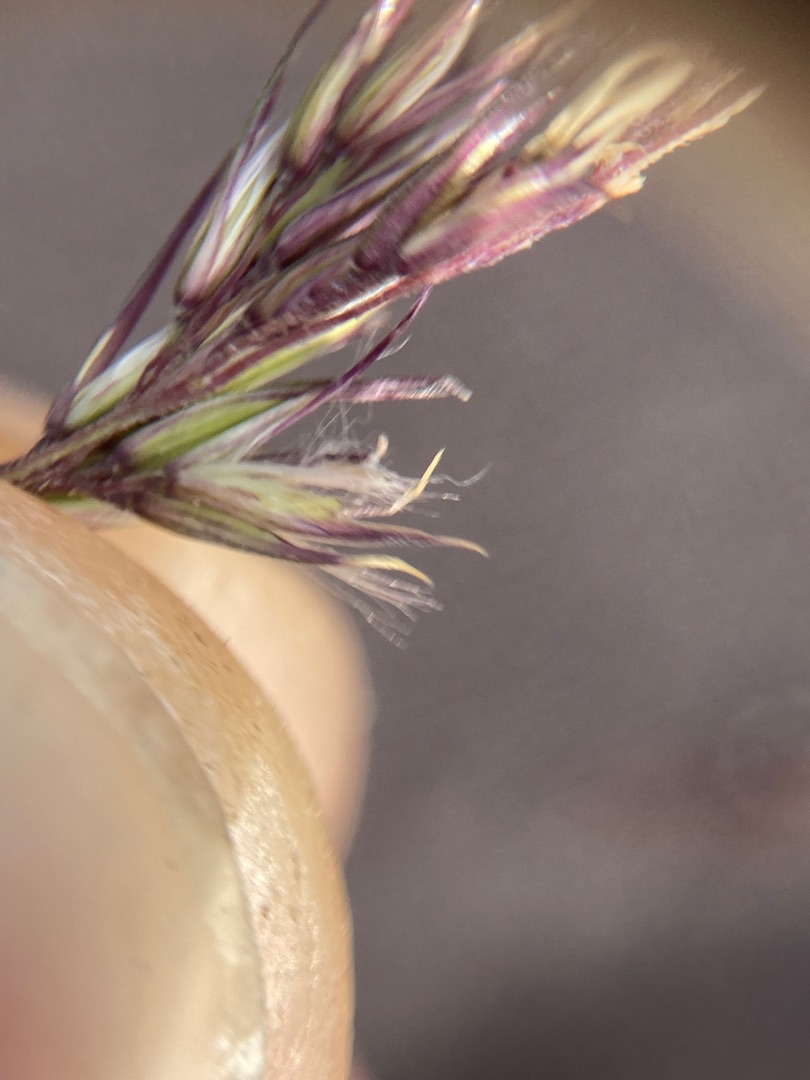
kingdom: Plantae
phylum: Tracheophyta
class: Liliopsida
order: Poales
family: Poaceae
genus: Calamagrostis
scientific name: Calamagrostis epigejos
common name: Bjerg-rørhvene
